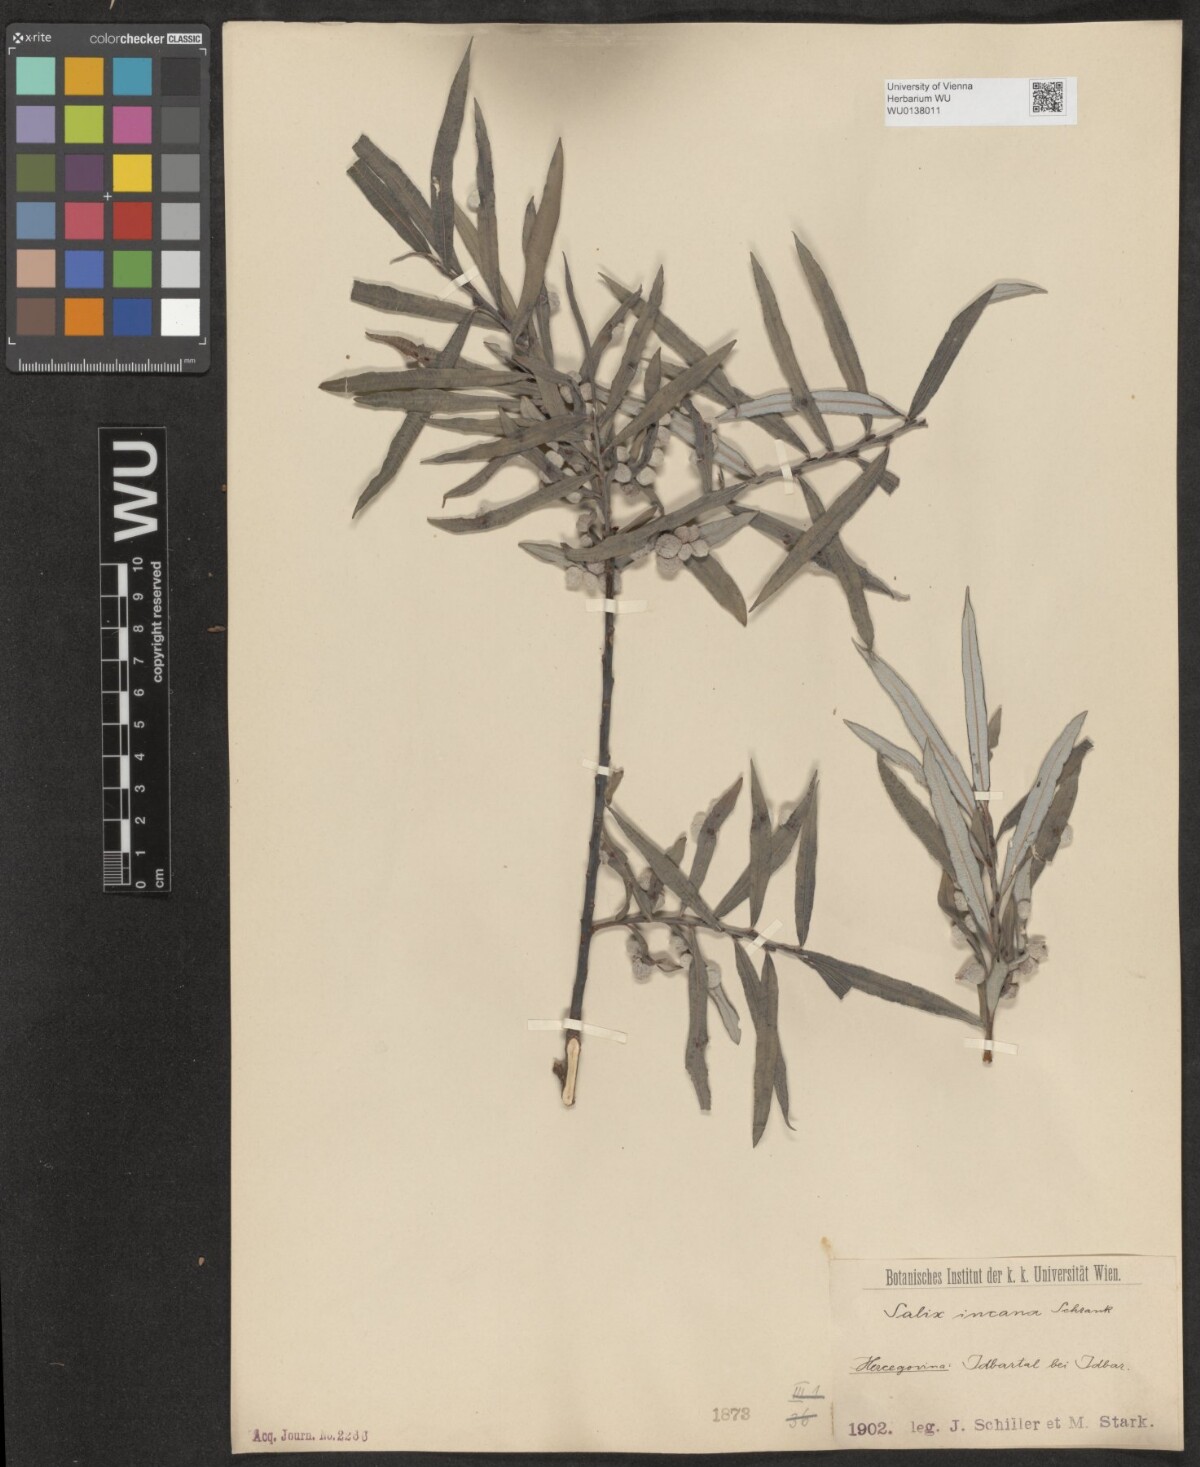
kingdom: Plantae
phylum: Tracheophyta
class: Magnoliopsida
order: Malpighiales
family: Salicaceae
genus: Salix
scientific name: Salix eleagnos
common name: Elaeagnus willow
